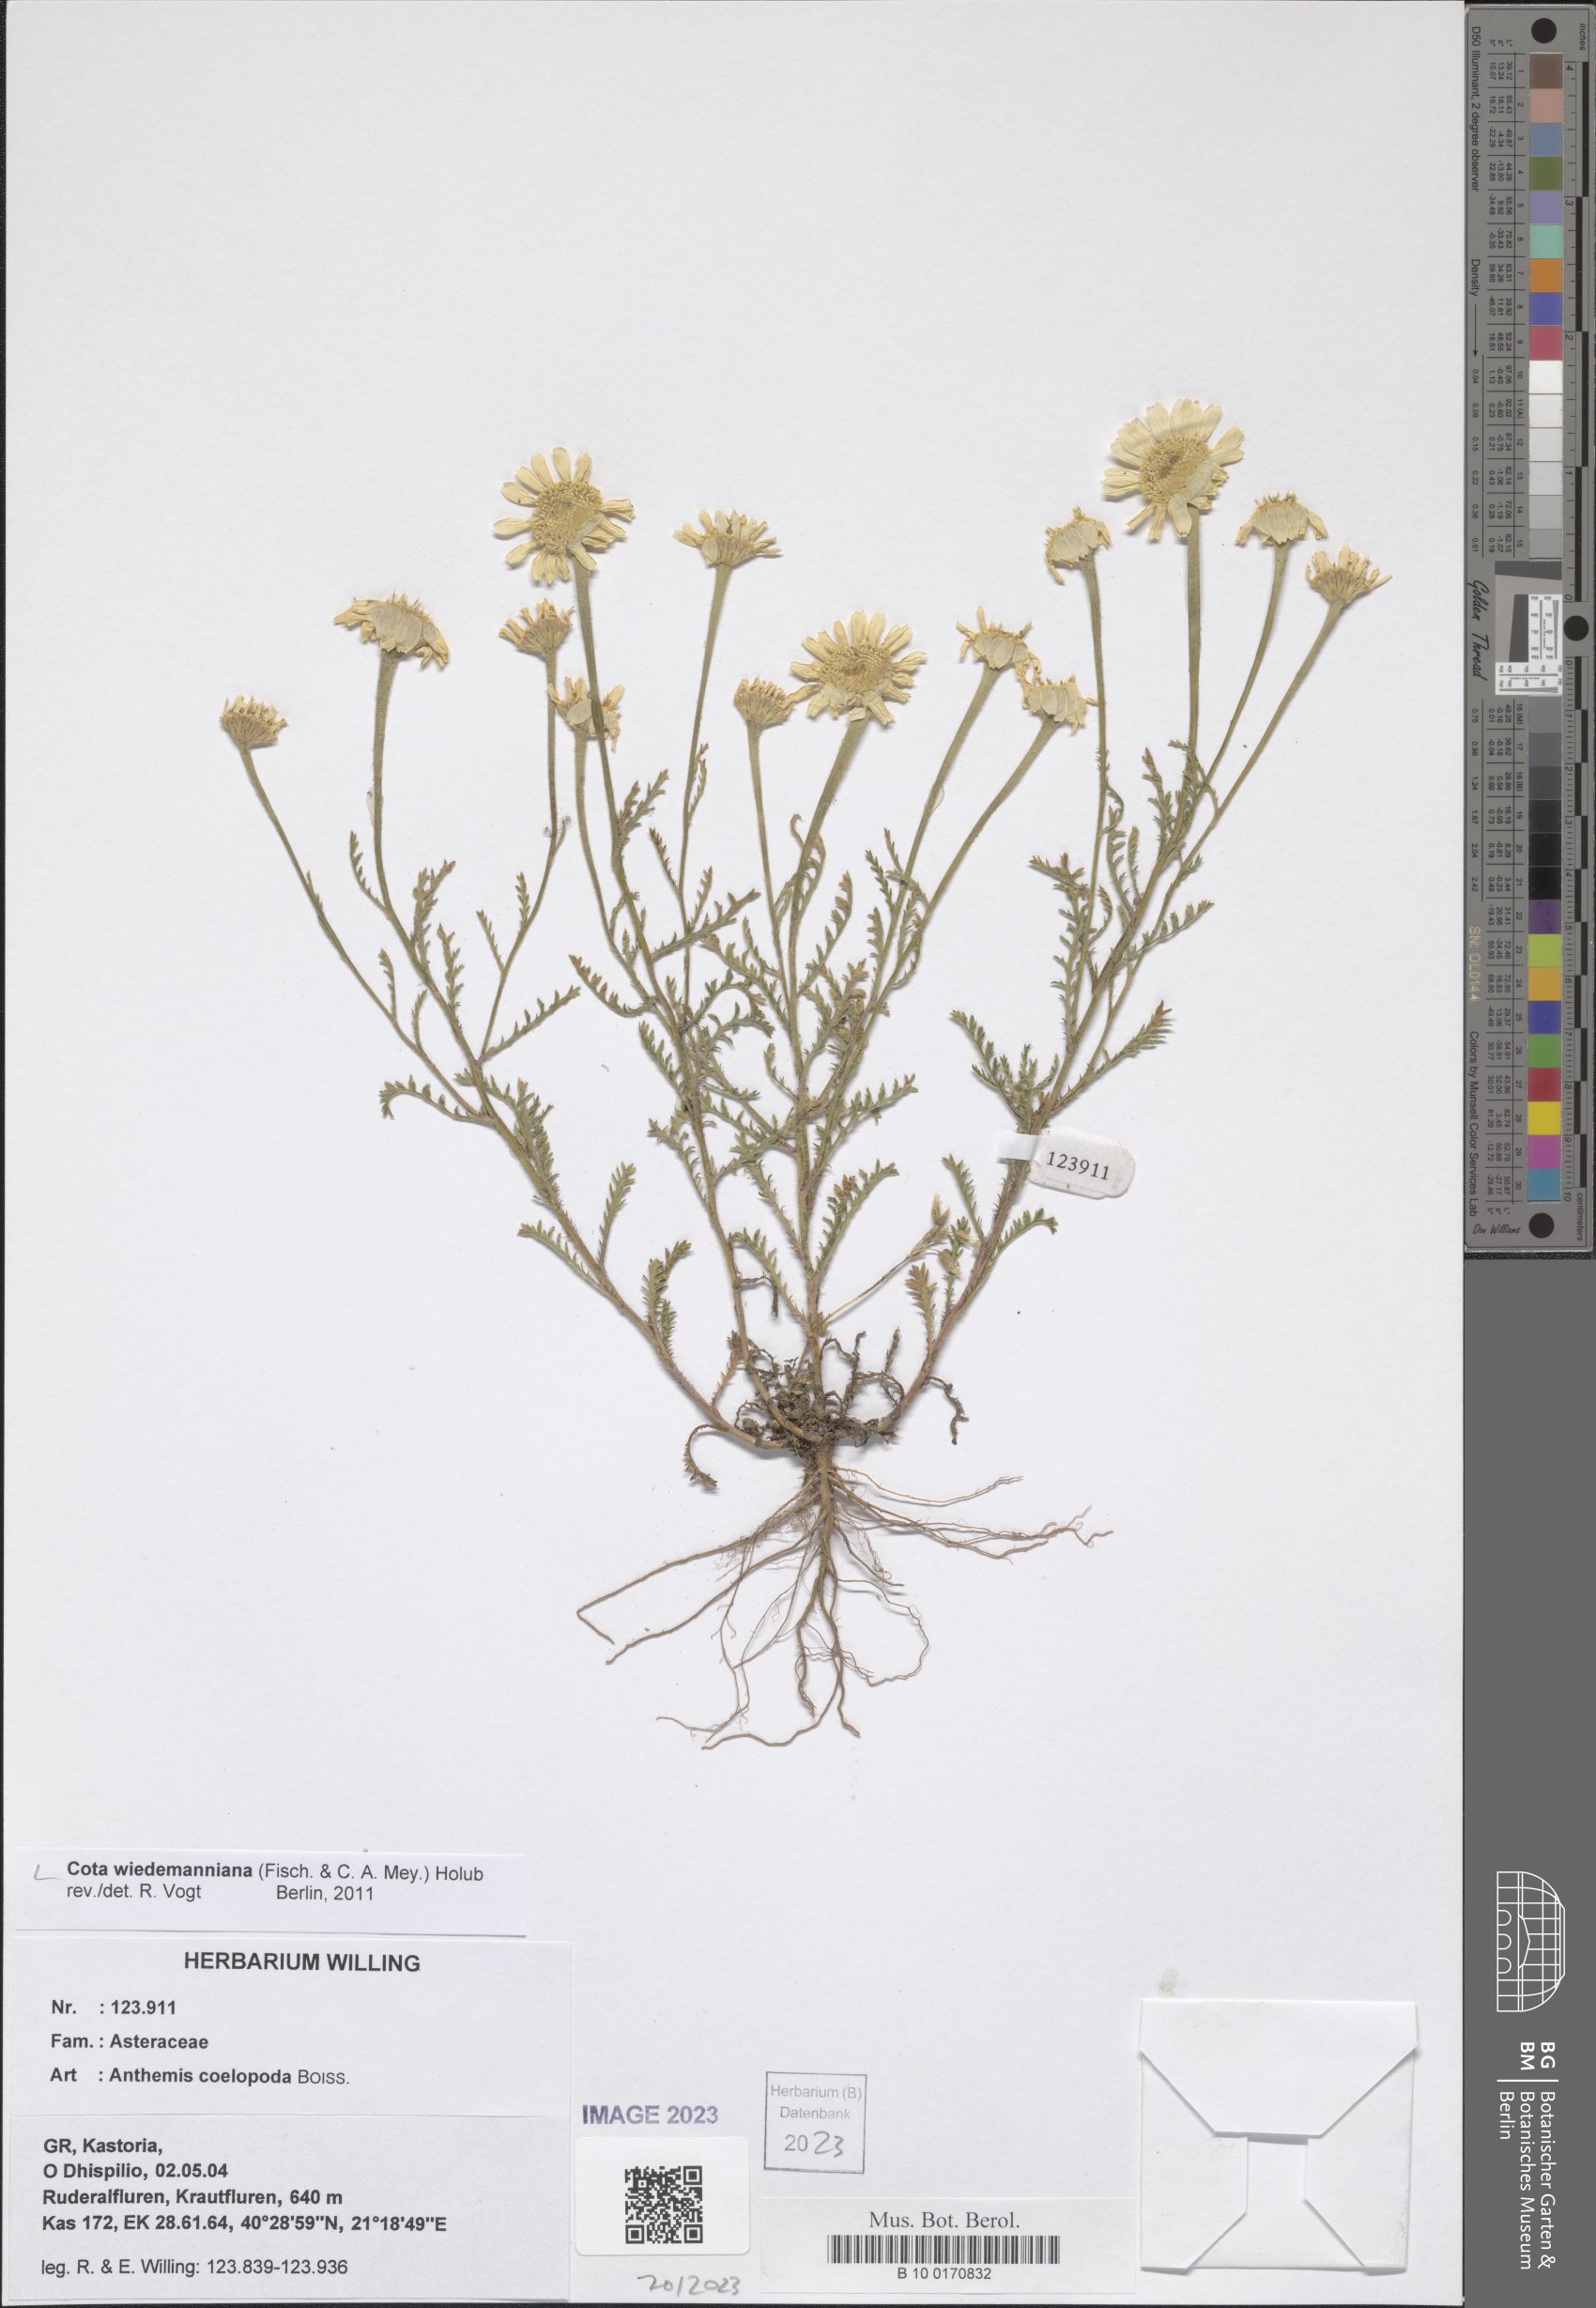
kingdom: Plantae
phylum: Tracheophyta
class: Magnoliopsida
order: Asterales
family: Asteraceae
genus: Cota
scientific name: Cota wiedemanniana
